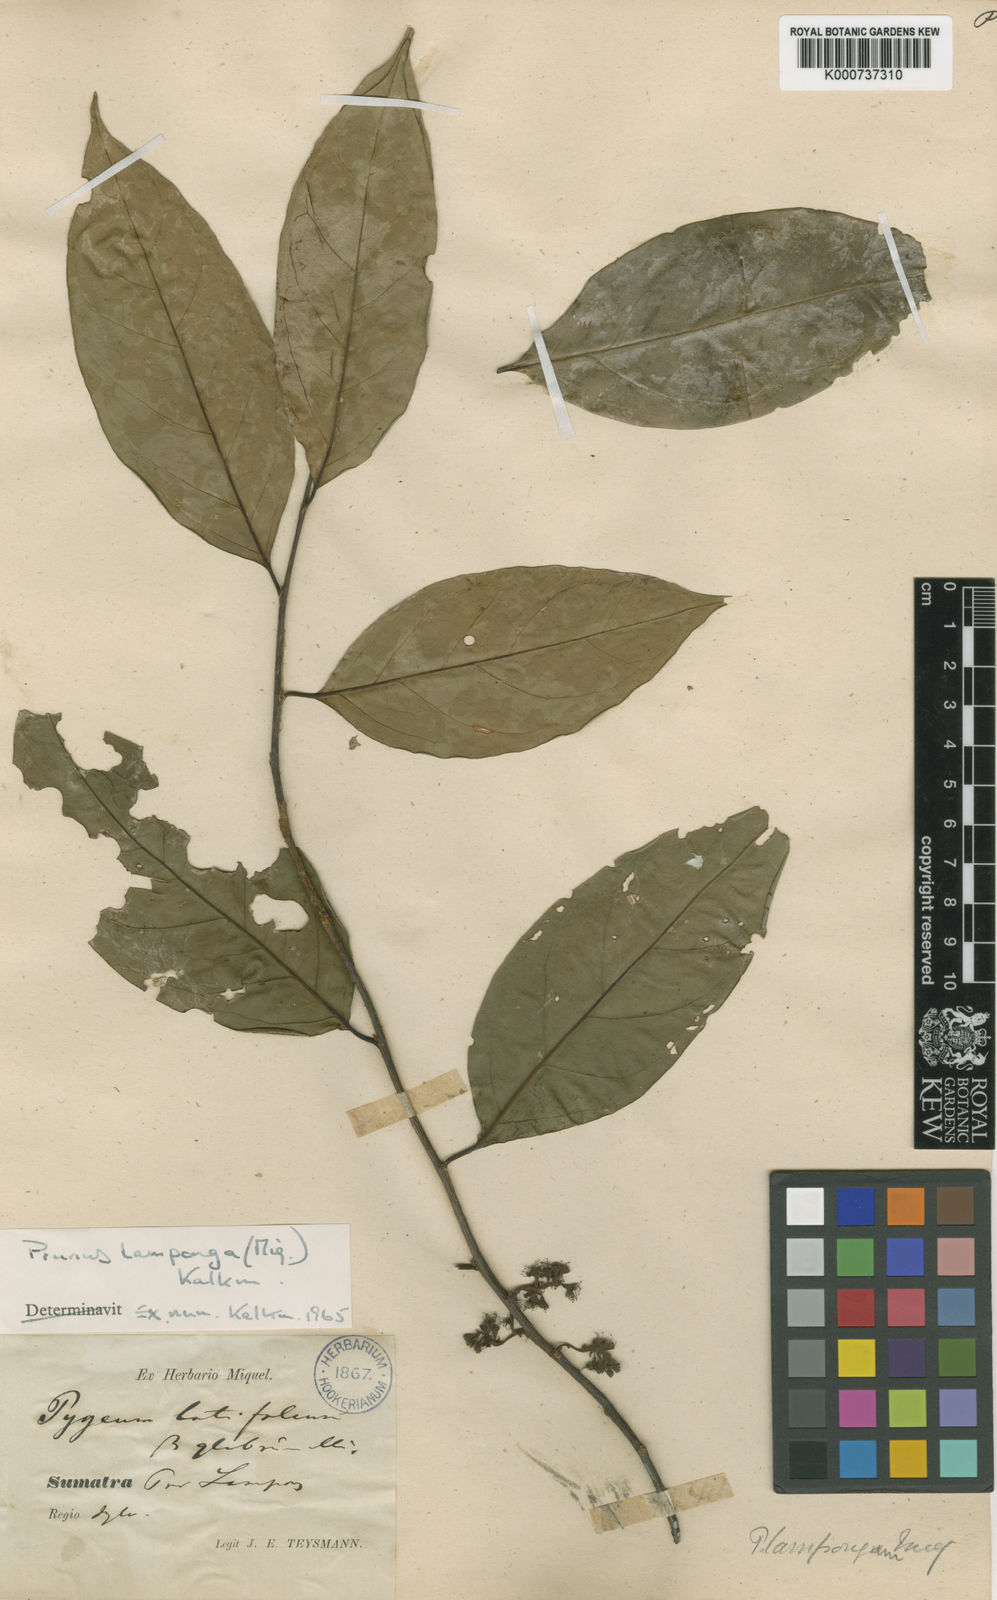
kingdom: Plantae
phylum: Tracheophyta
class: Magnoliopsida
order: Rosales
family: Rosaceae
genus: Prunus
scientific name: Prunus lamponga
